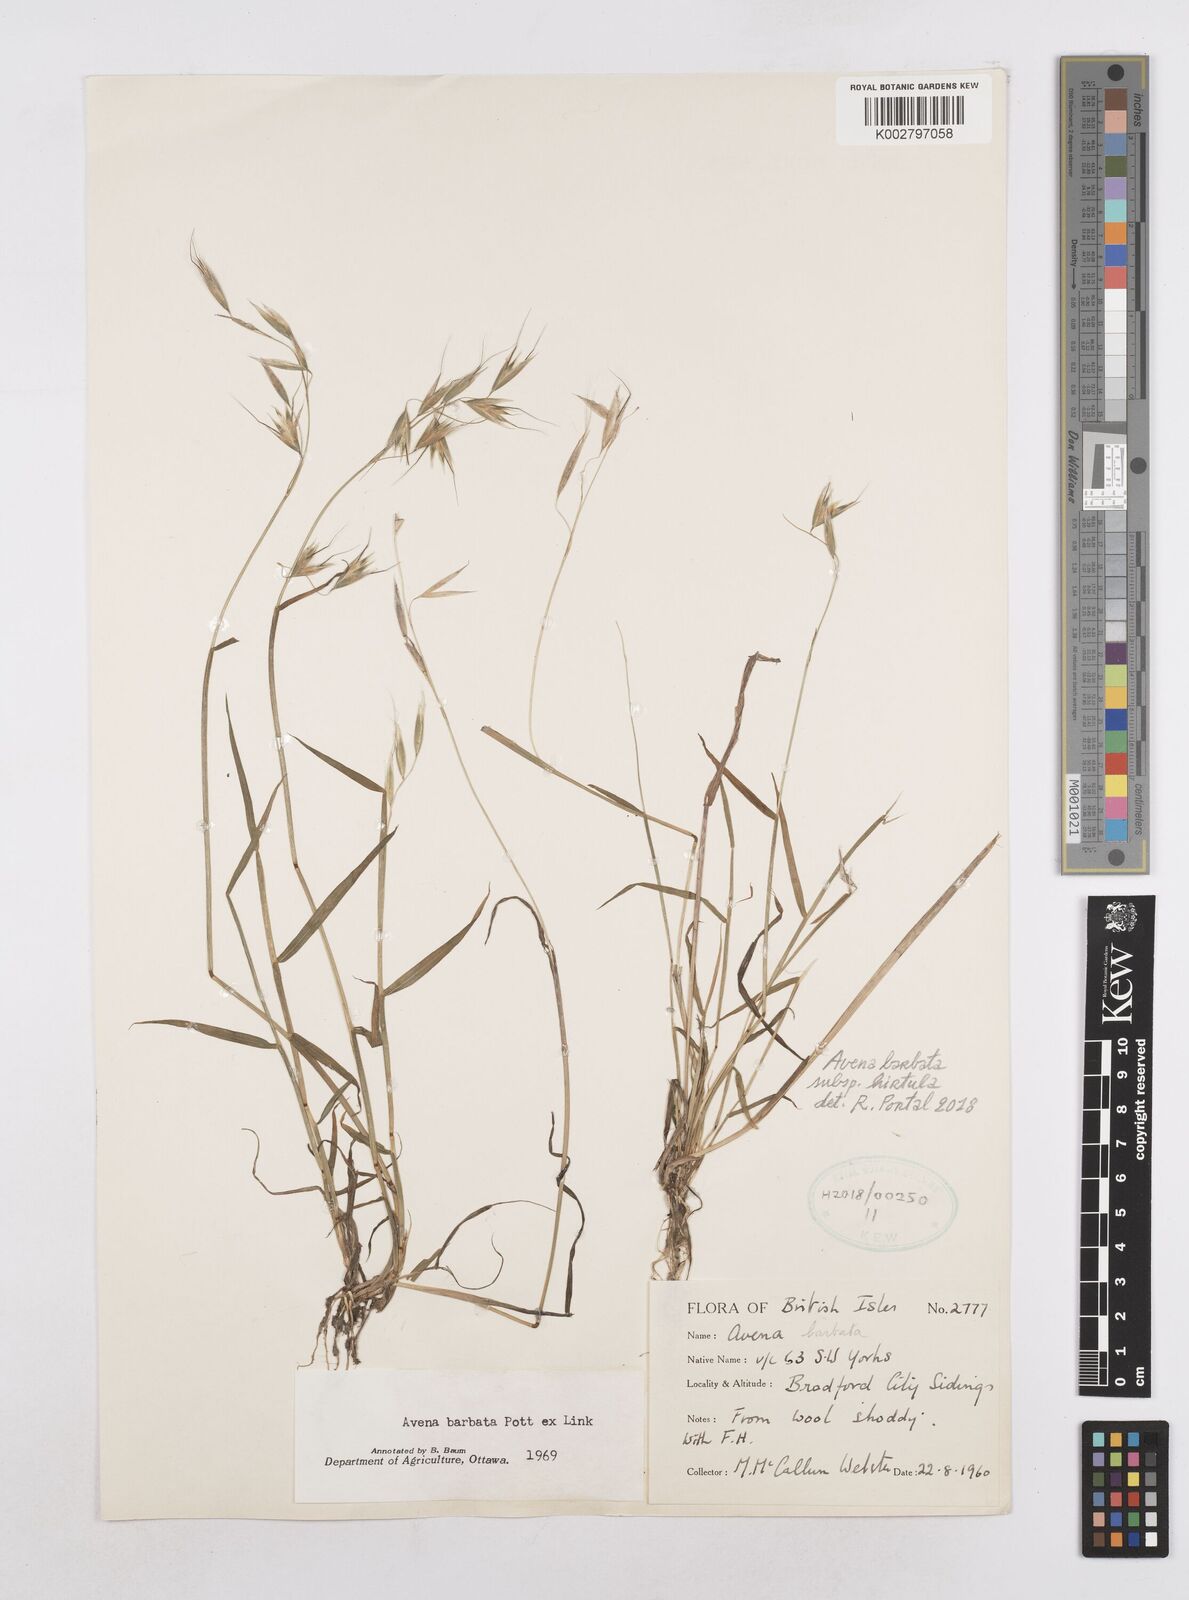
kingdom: Plantae
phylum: Tracheophyta
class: Liliopsida
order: Poales
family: Poaceae
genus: Avena
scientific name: Avena
